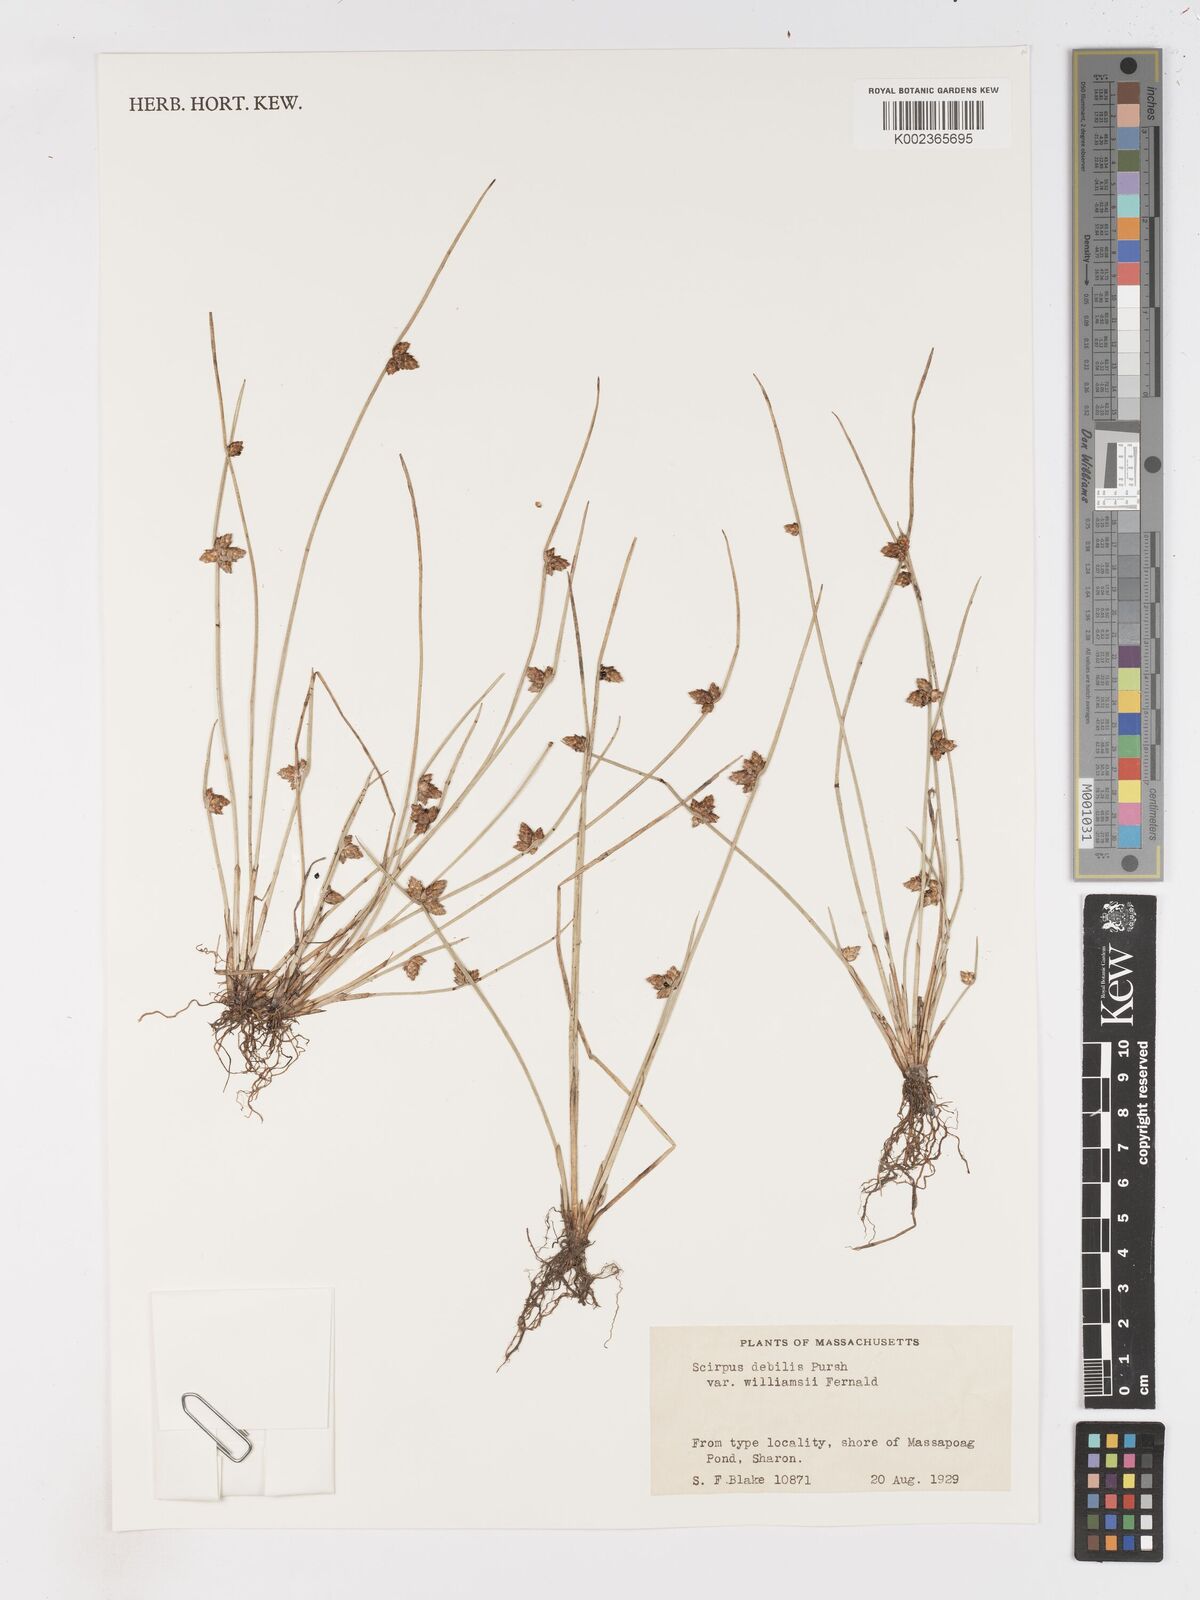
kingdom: Plantae
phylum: Tracheophyta
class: Liliopsida
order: Poales
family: Cyperaceae
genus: Schoenoplectus
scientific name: Schoenoplectus
